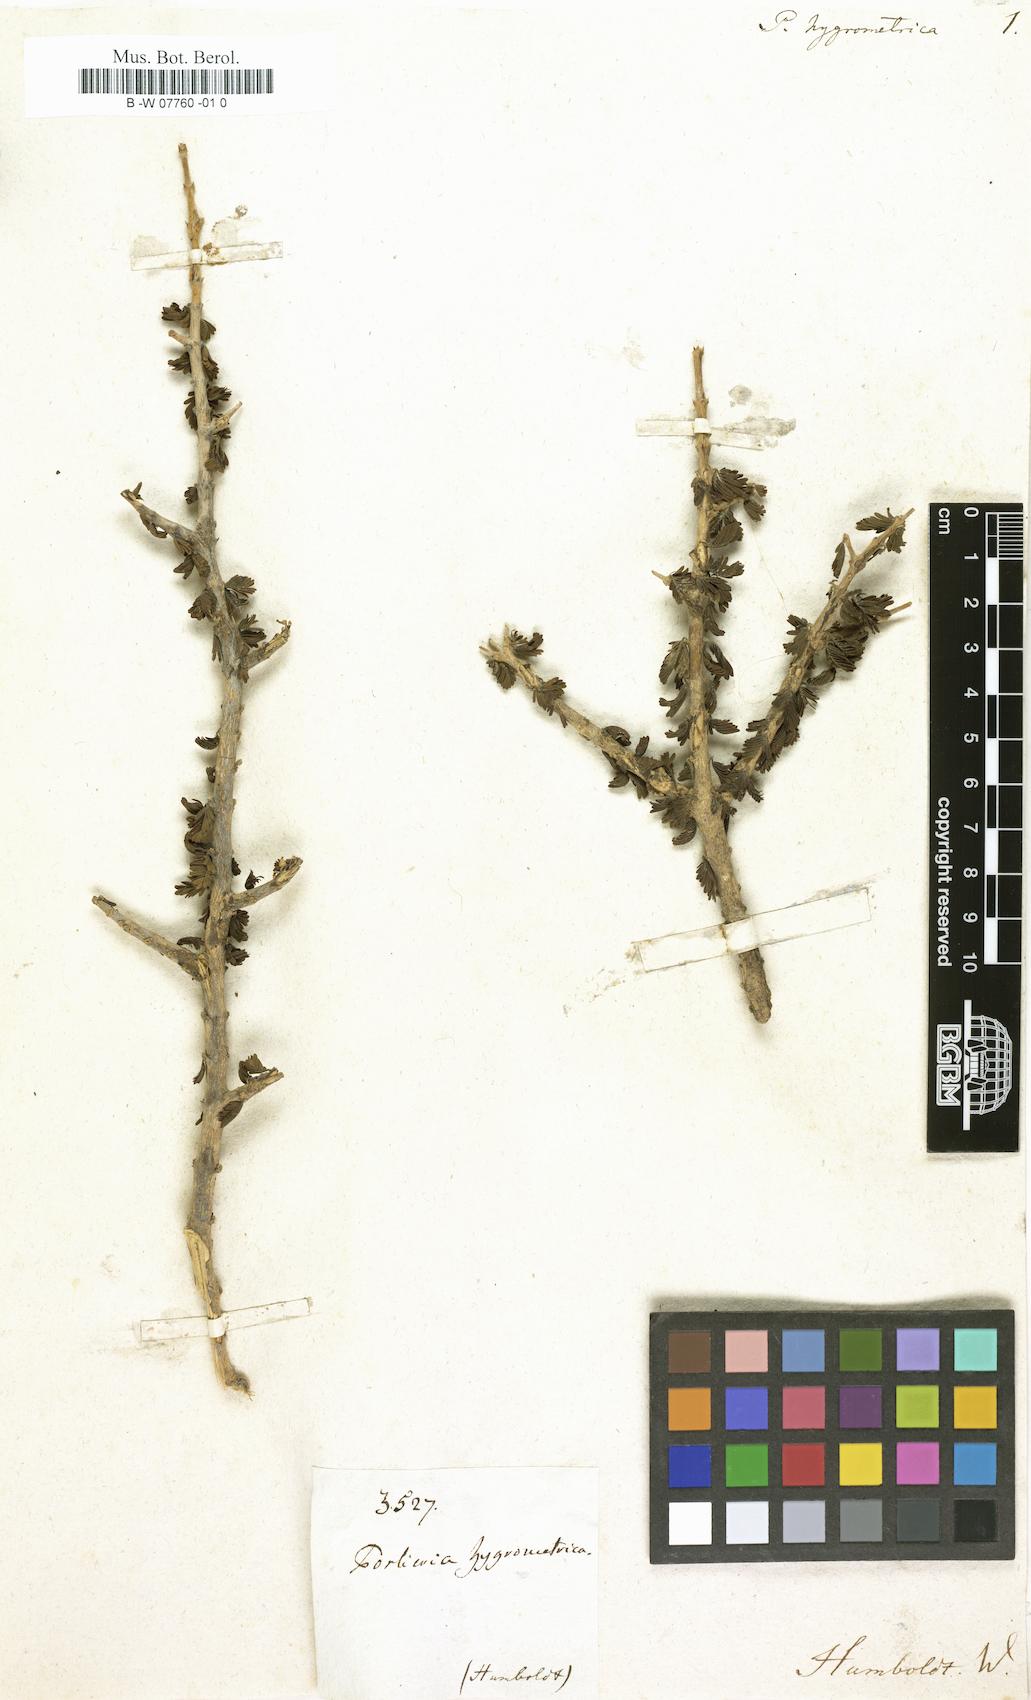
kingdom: Plantae
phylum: Tracheophyta
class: Magnoliopsida
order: Zygophyllales
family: Zygophyllaceae
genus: Porlieria
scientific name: Porlieria hygrometra
